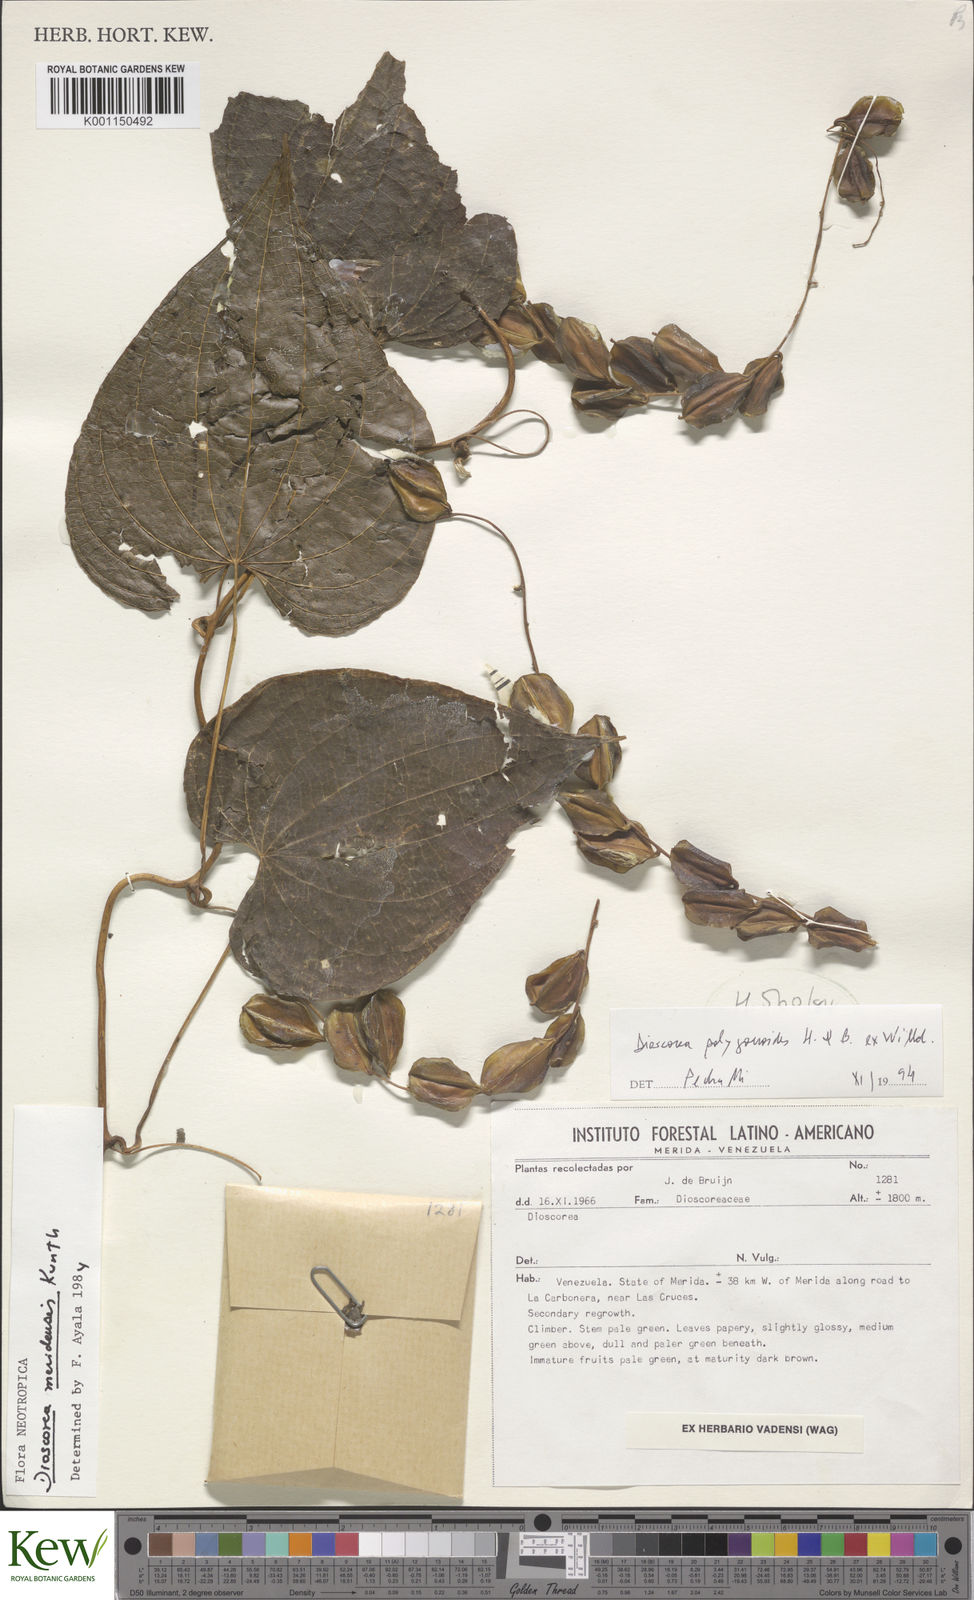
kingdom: Plantae
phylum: Tracheophyta
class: Liliopsida
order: Dioscoreales
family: Dioscoreaceae
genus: Dioscorea
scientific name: Dioscorea meridensis
